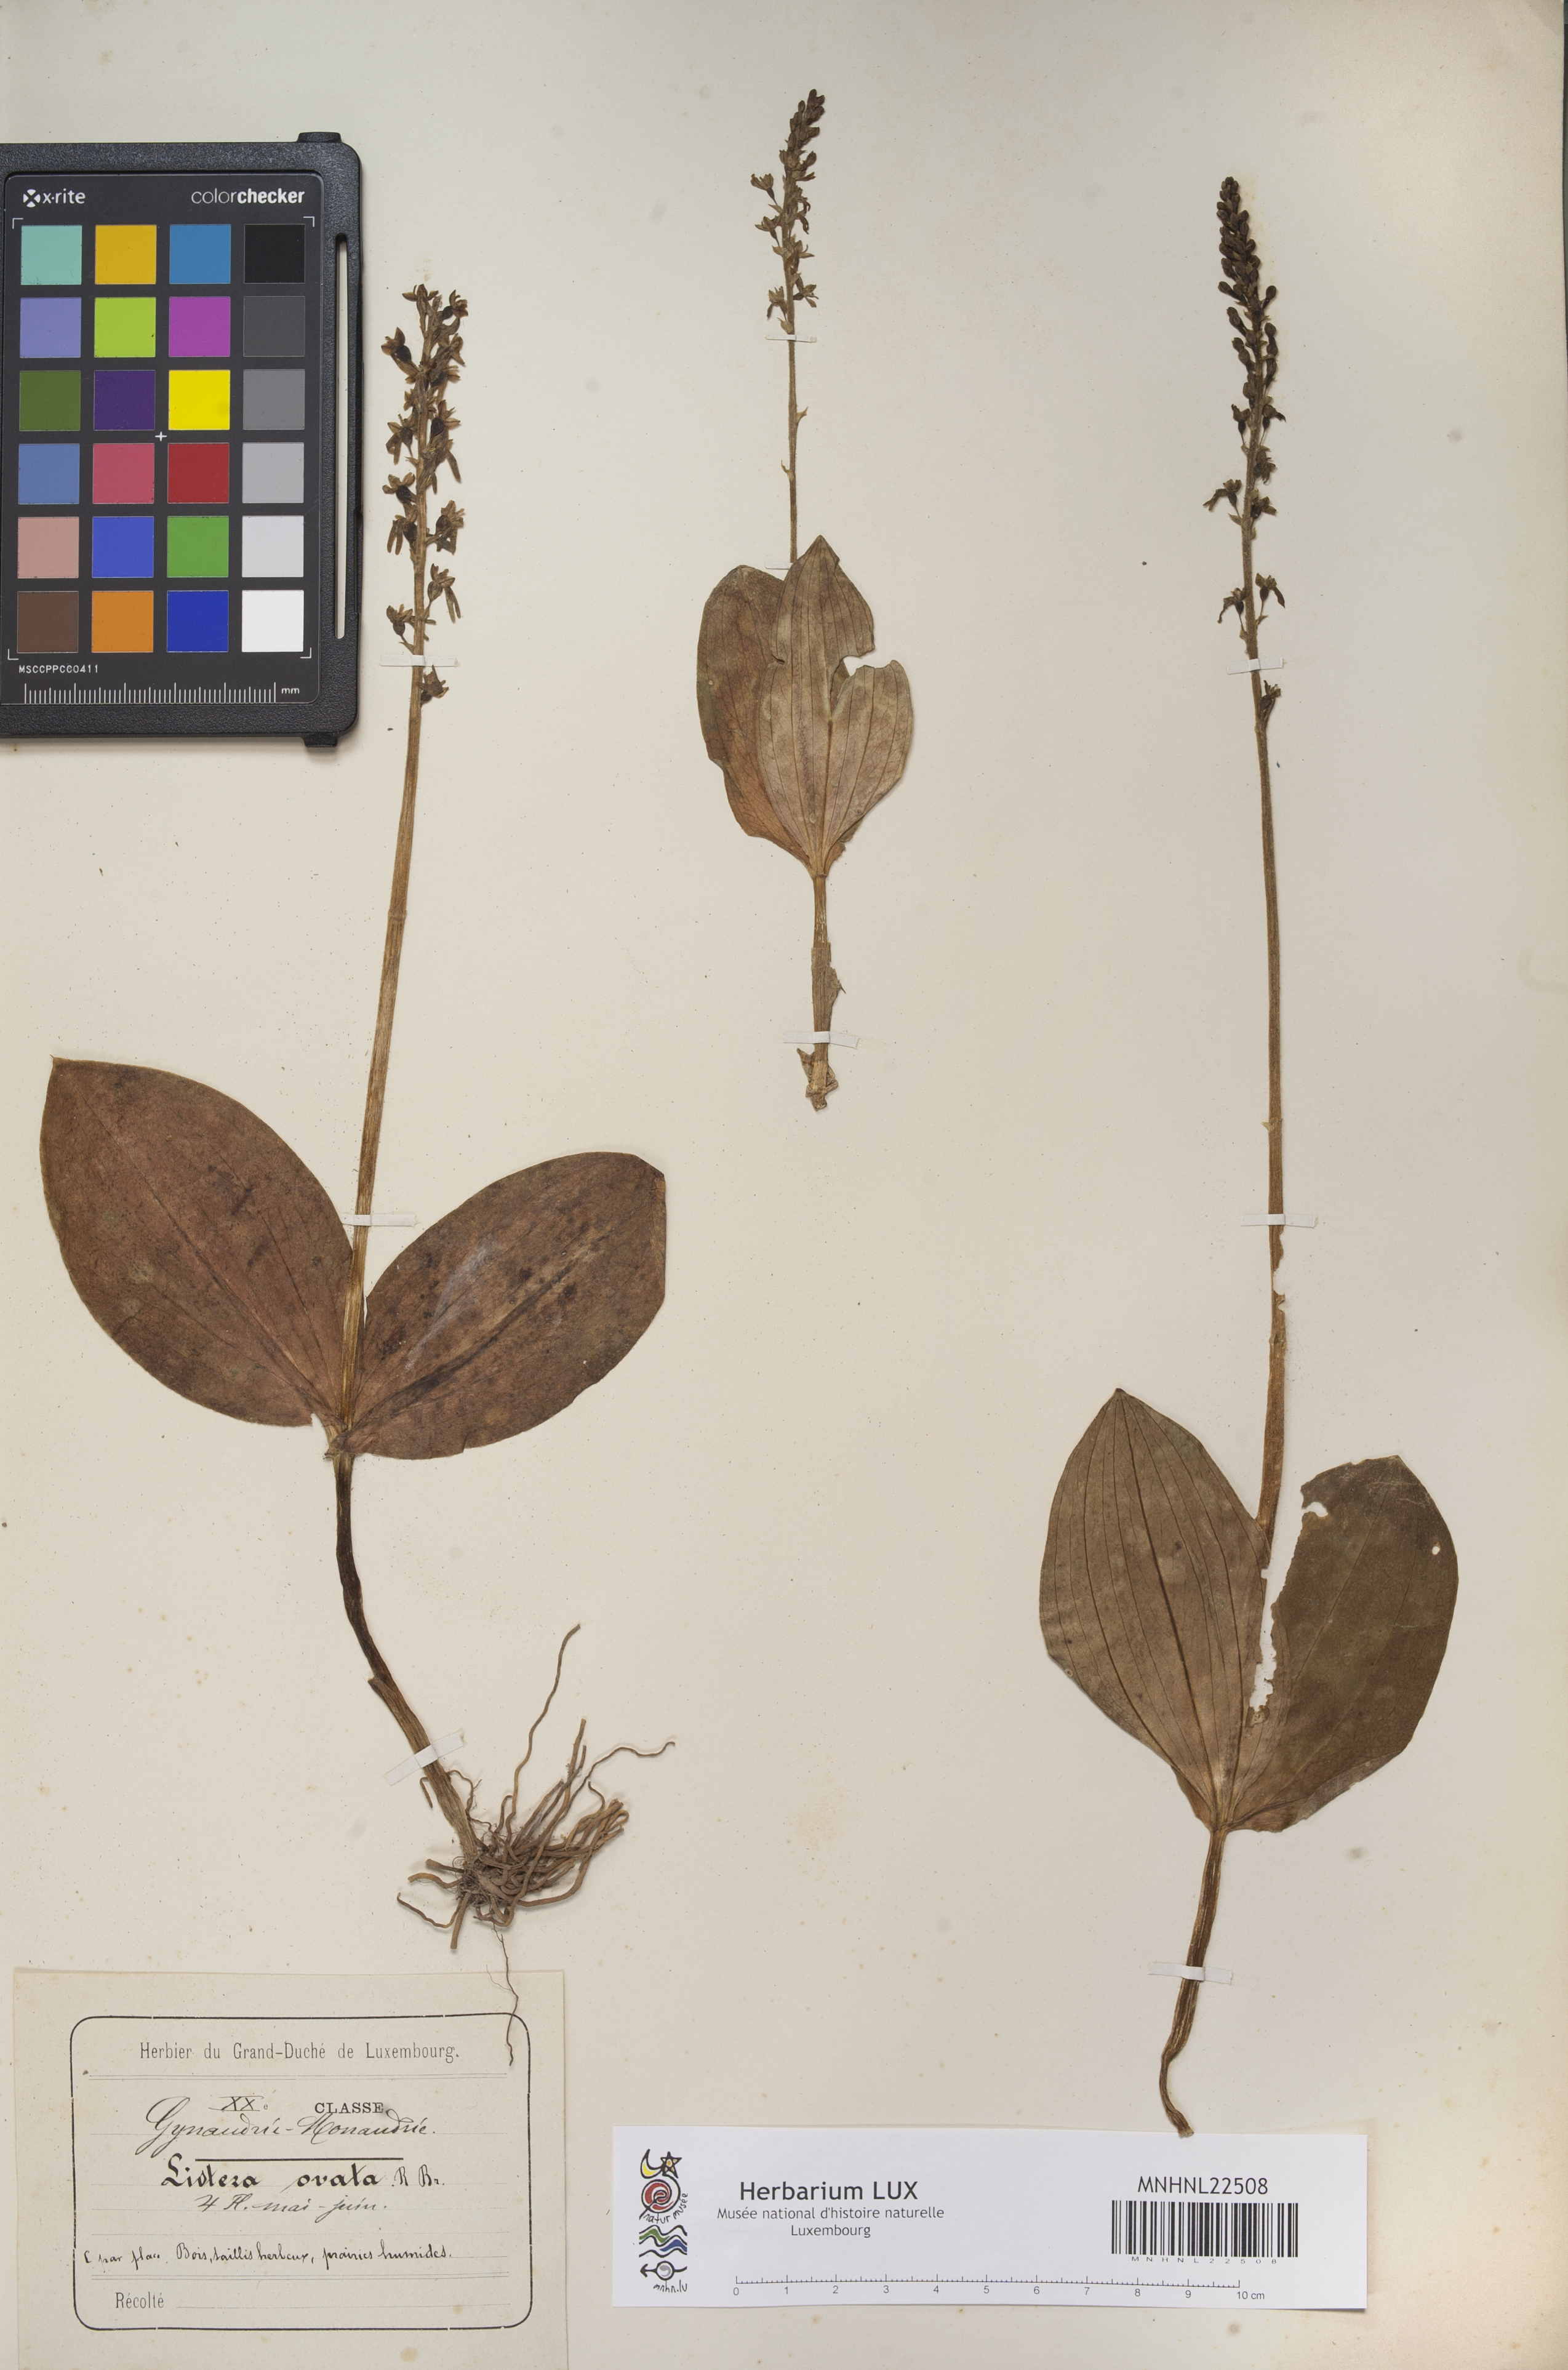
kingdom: Plantae
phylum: Tracheophyta
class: Liliopsida
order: Asparagales
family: Orchidaceae
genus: Neottia
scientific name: Neottia ovata
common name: Common twayblade
